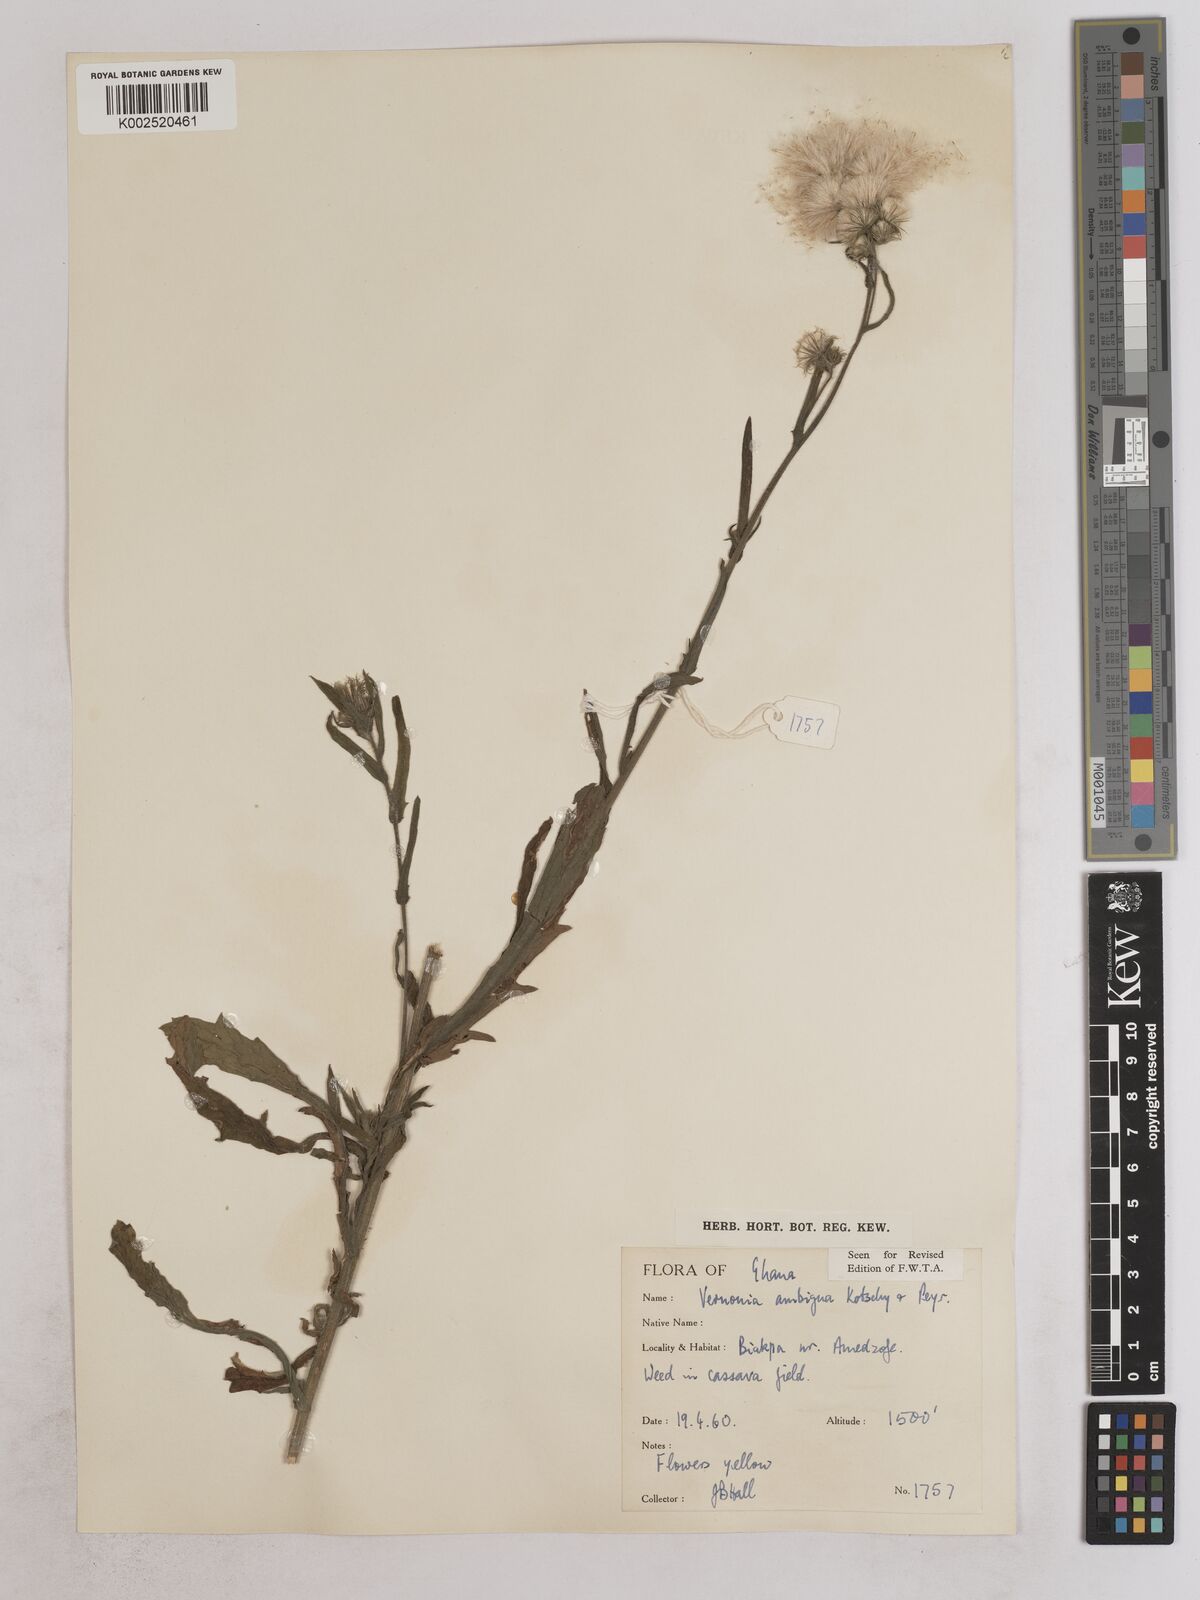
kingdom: Plantae
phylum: Tracheophyta
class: Magnoliopsida
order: Asterales
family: Asteraceae
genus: Vernoniastrum
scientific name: Vernoniastrum ambiguum
